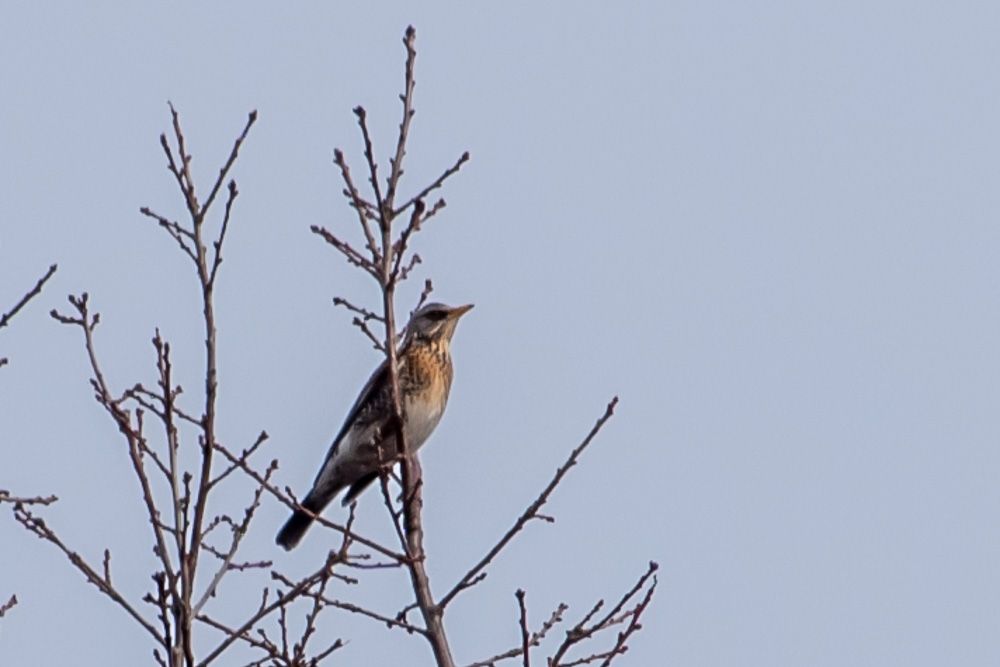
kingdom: Animalia
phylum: Chordata
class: Aves
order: Passeriformes
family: Turdidae
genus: Turdus
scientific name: Turdus pilaris
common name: Fieldfare
